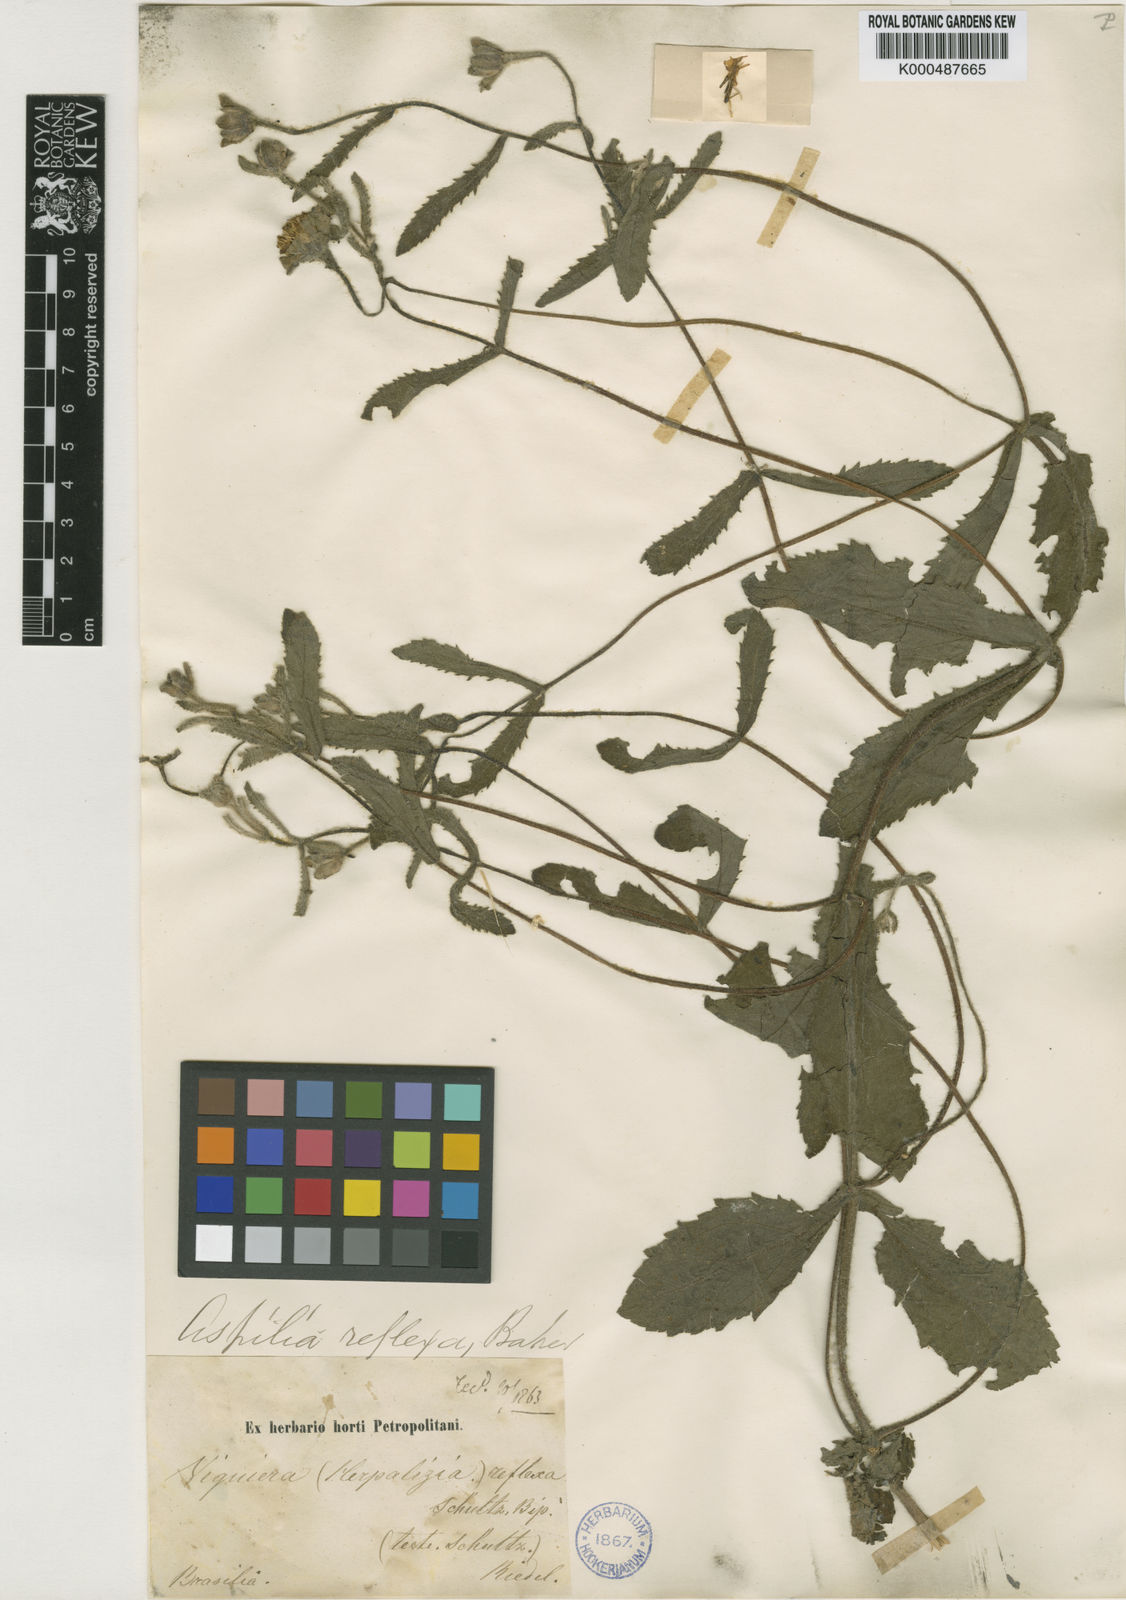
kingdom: Plantae
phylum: Tracheophyta
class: Magnoliopsida
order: Asterales
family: Asteraceae
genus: Wedelia
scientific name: Wedelia reflexa
